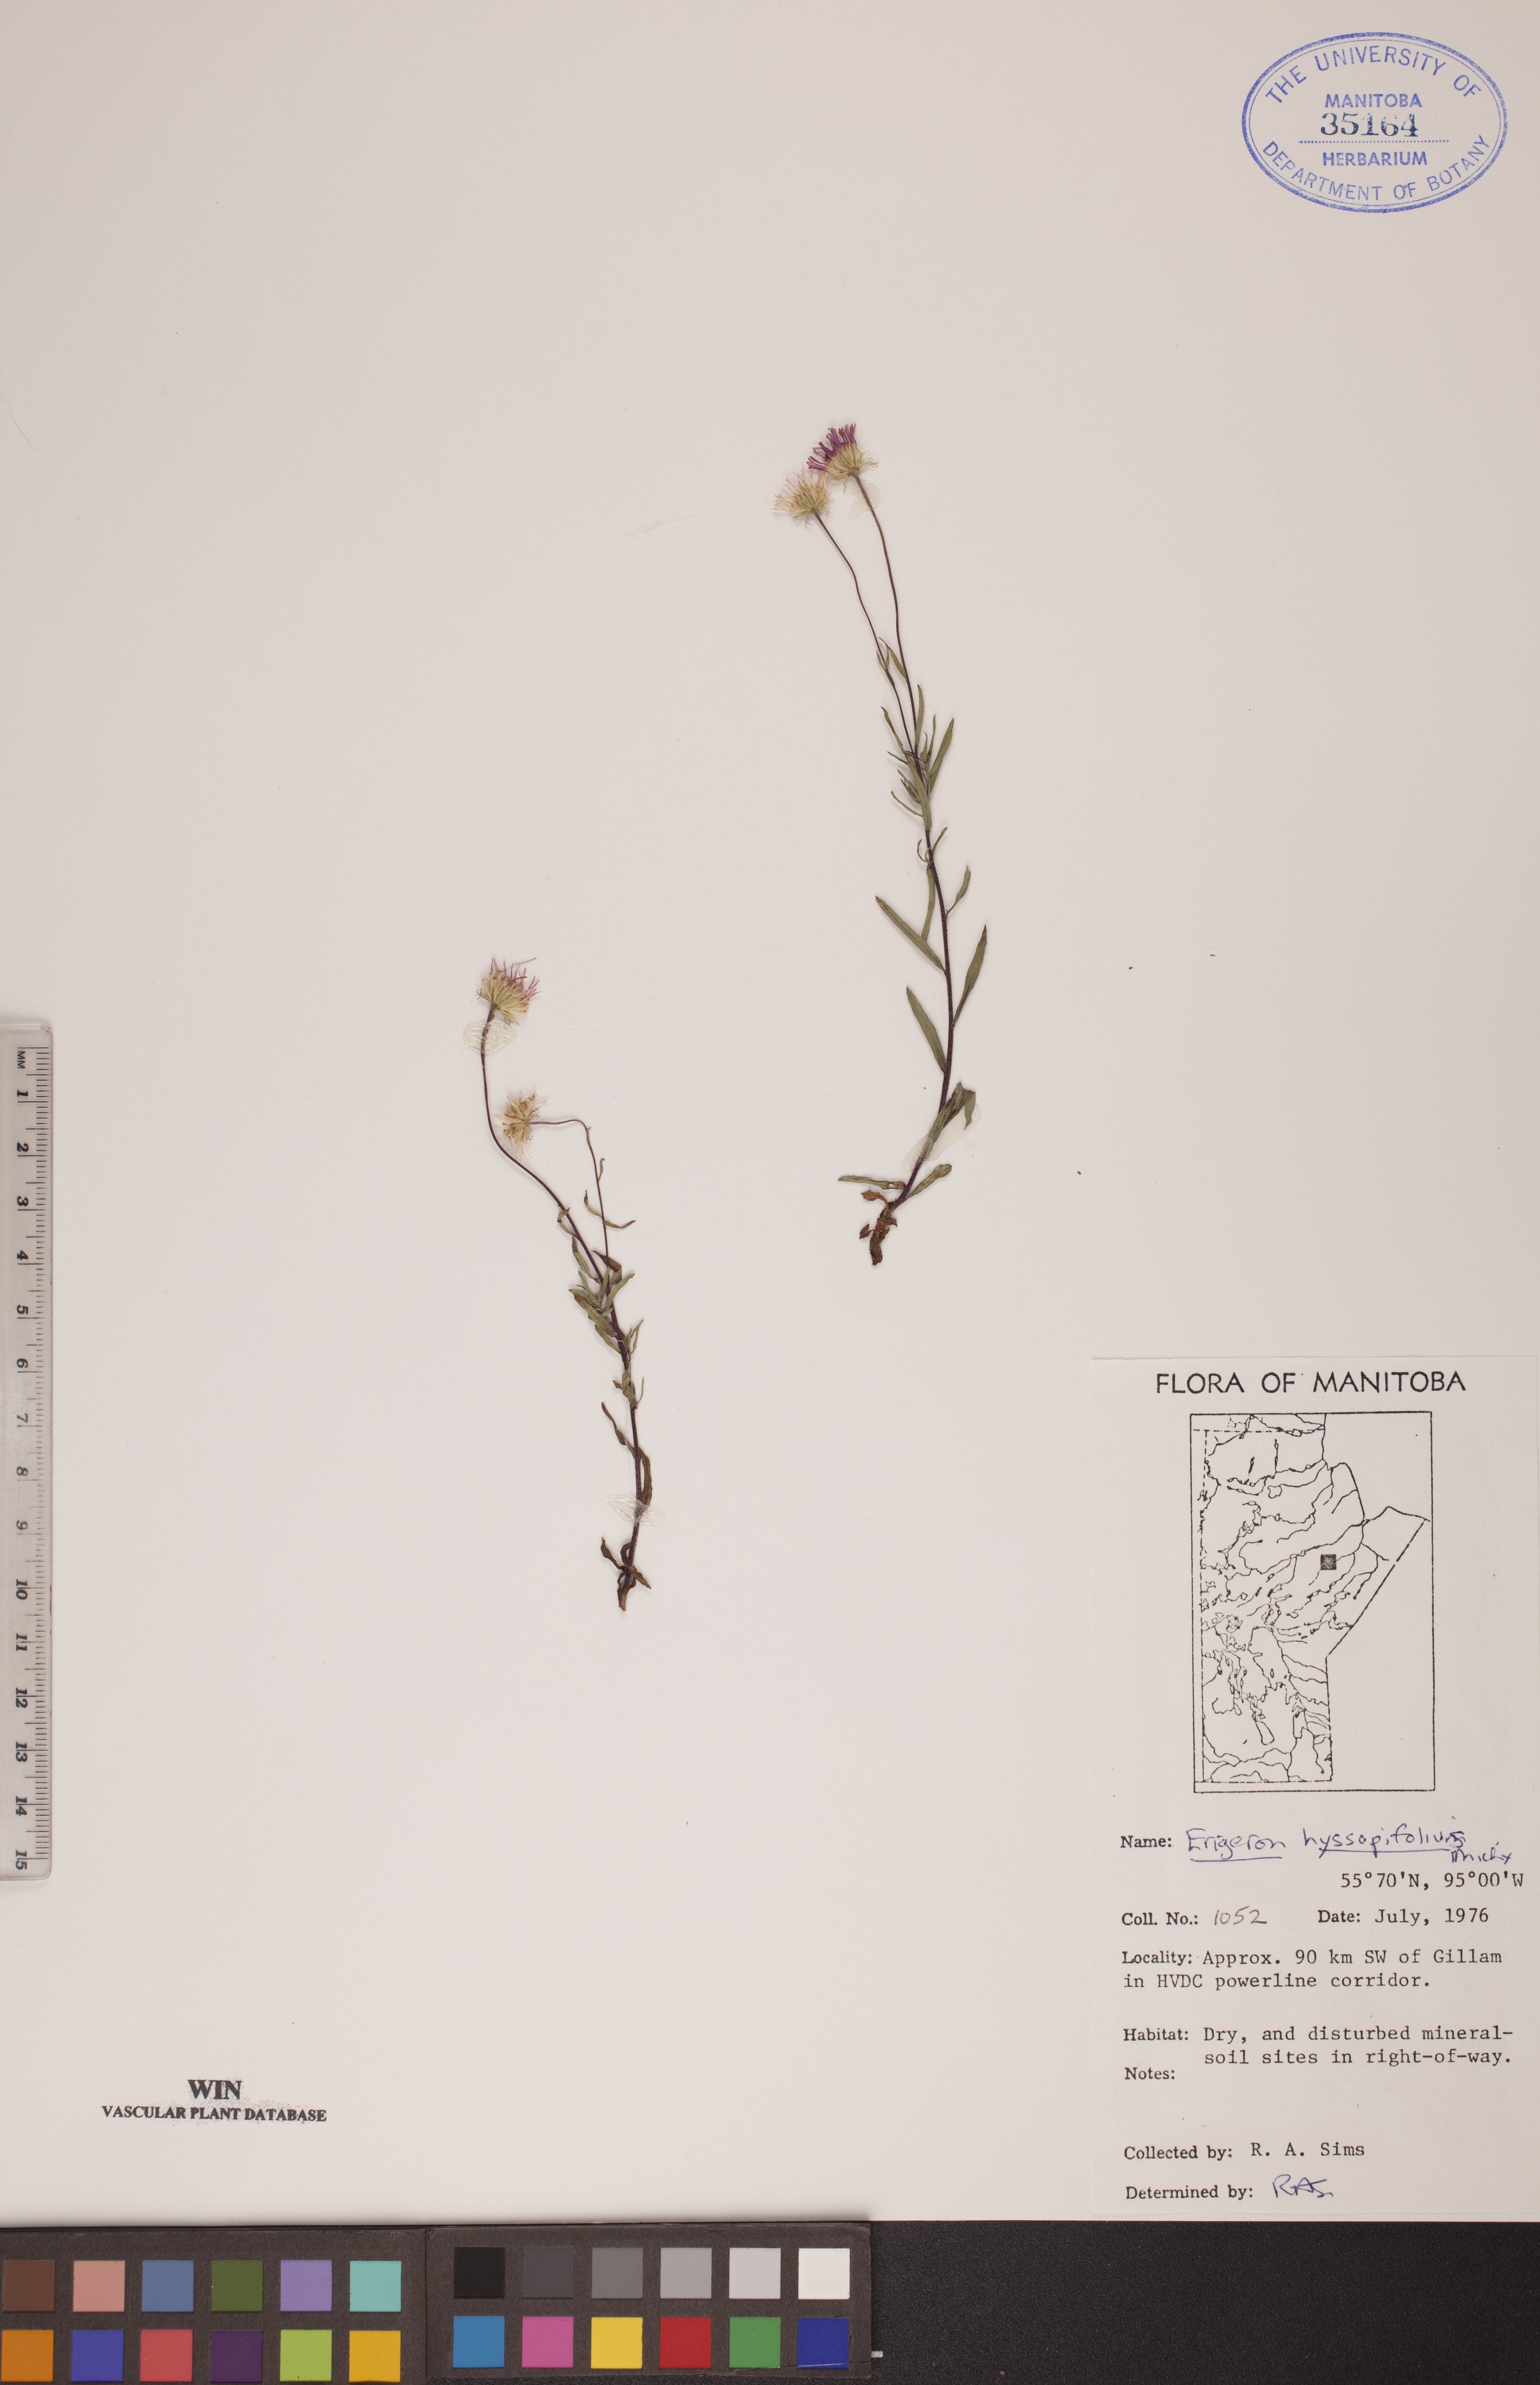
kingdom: Plantae
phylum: Tracheophyta
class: Magnoliopsida
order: Asterales
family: Asteraceae
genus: Erigeron
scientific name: Erigeron hyssopifolius
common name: Daisy fleabane
